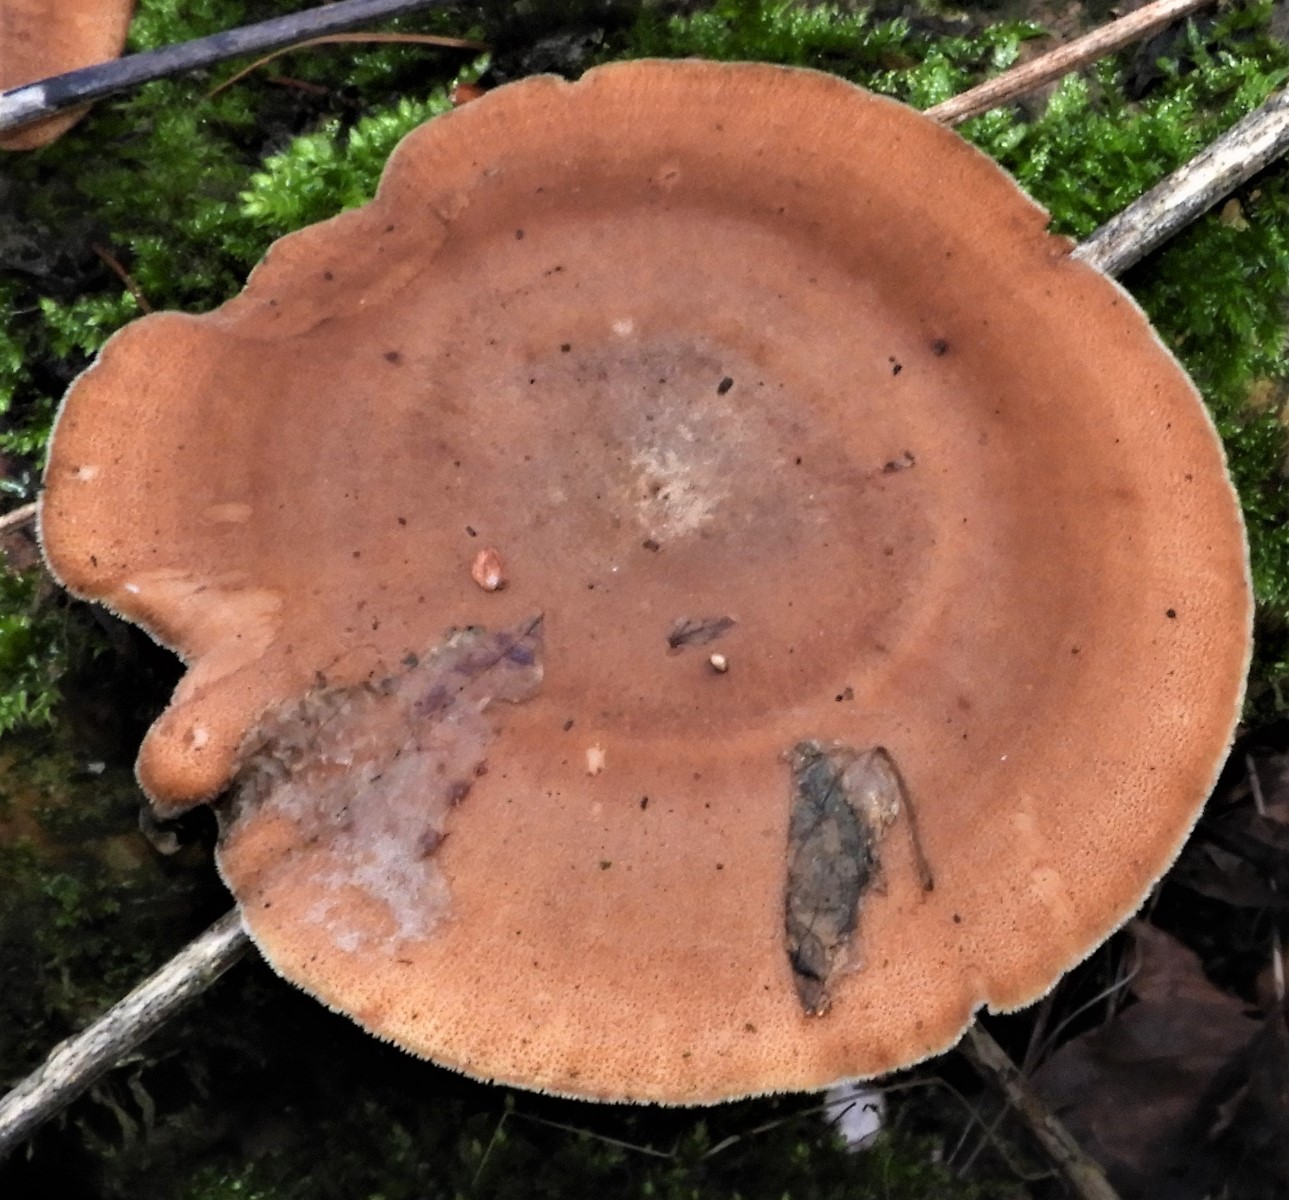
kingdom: Fungi
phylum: Basidiomycota
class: Agaricomycetes
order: Polyporales
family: Polyporaceae
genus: Lentinus
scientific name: Lentinus brumalis
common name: vinter-stilkporesvamp
